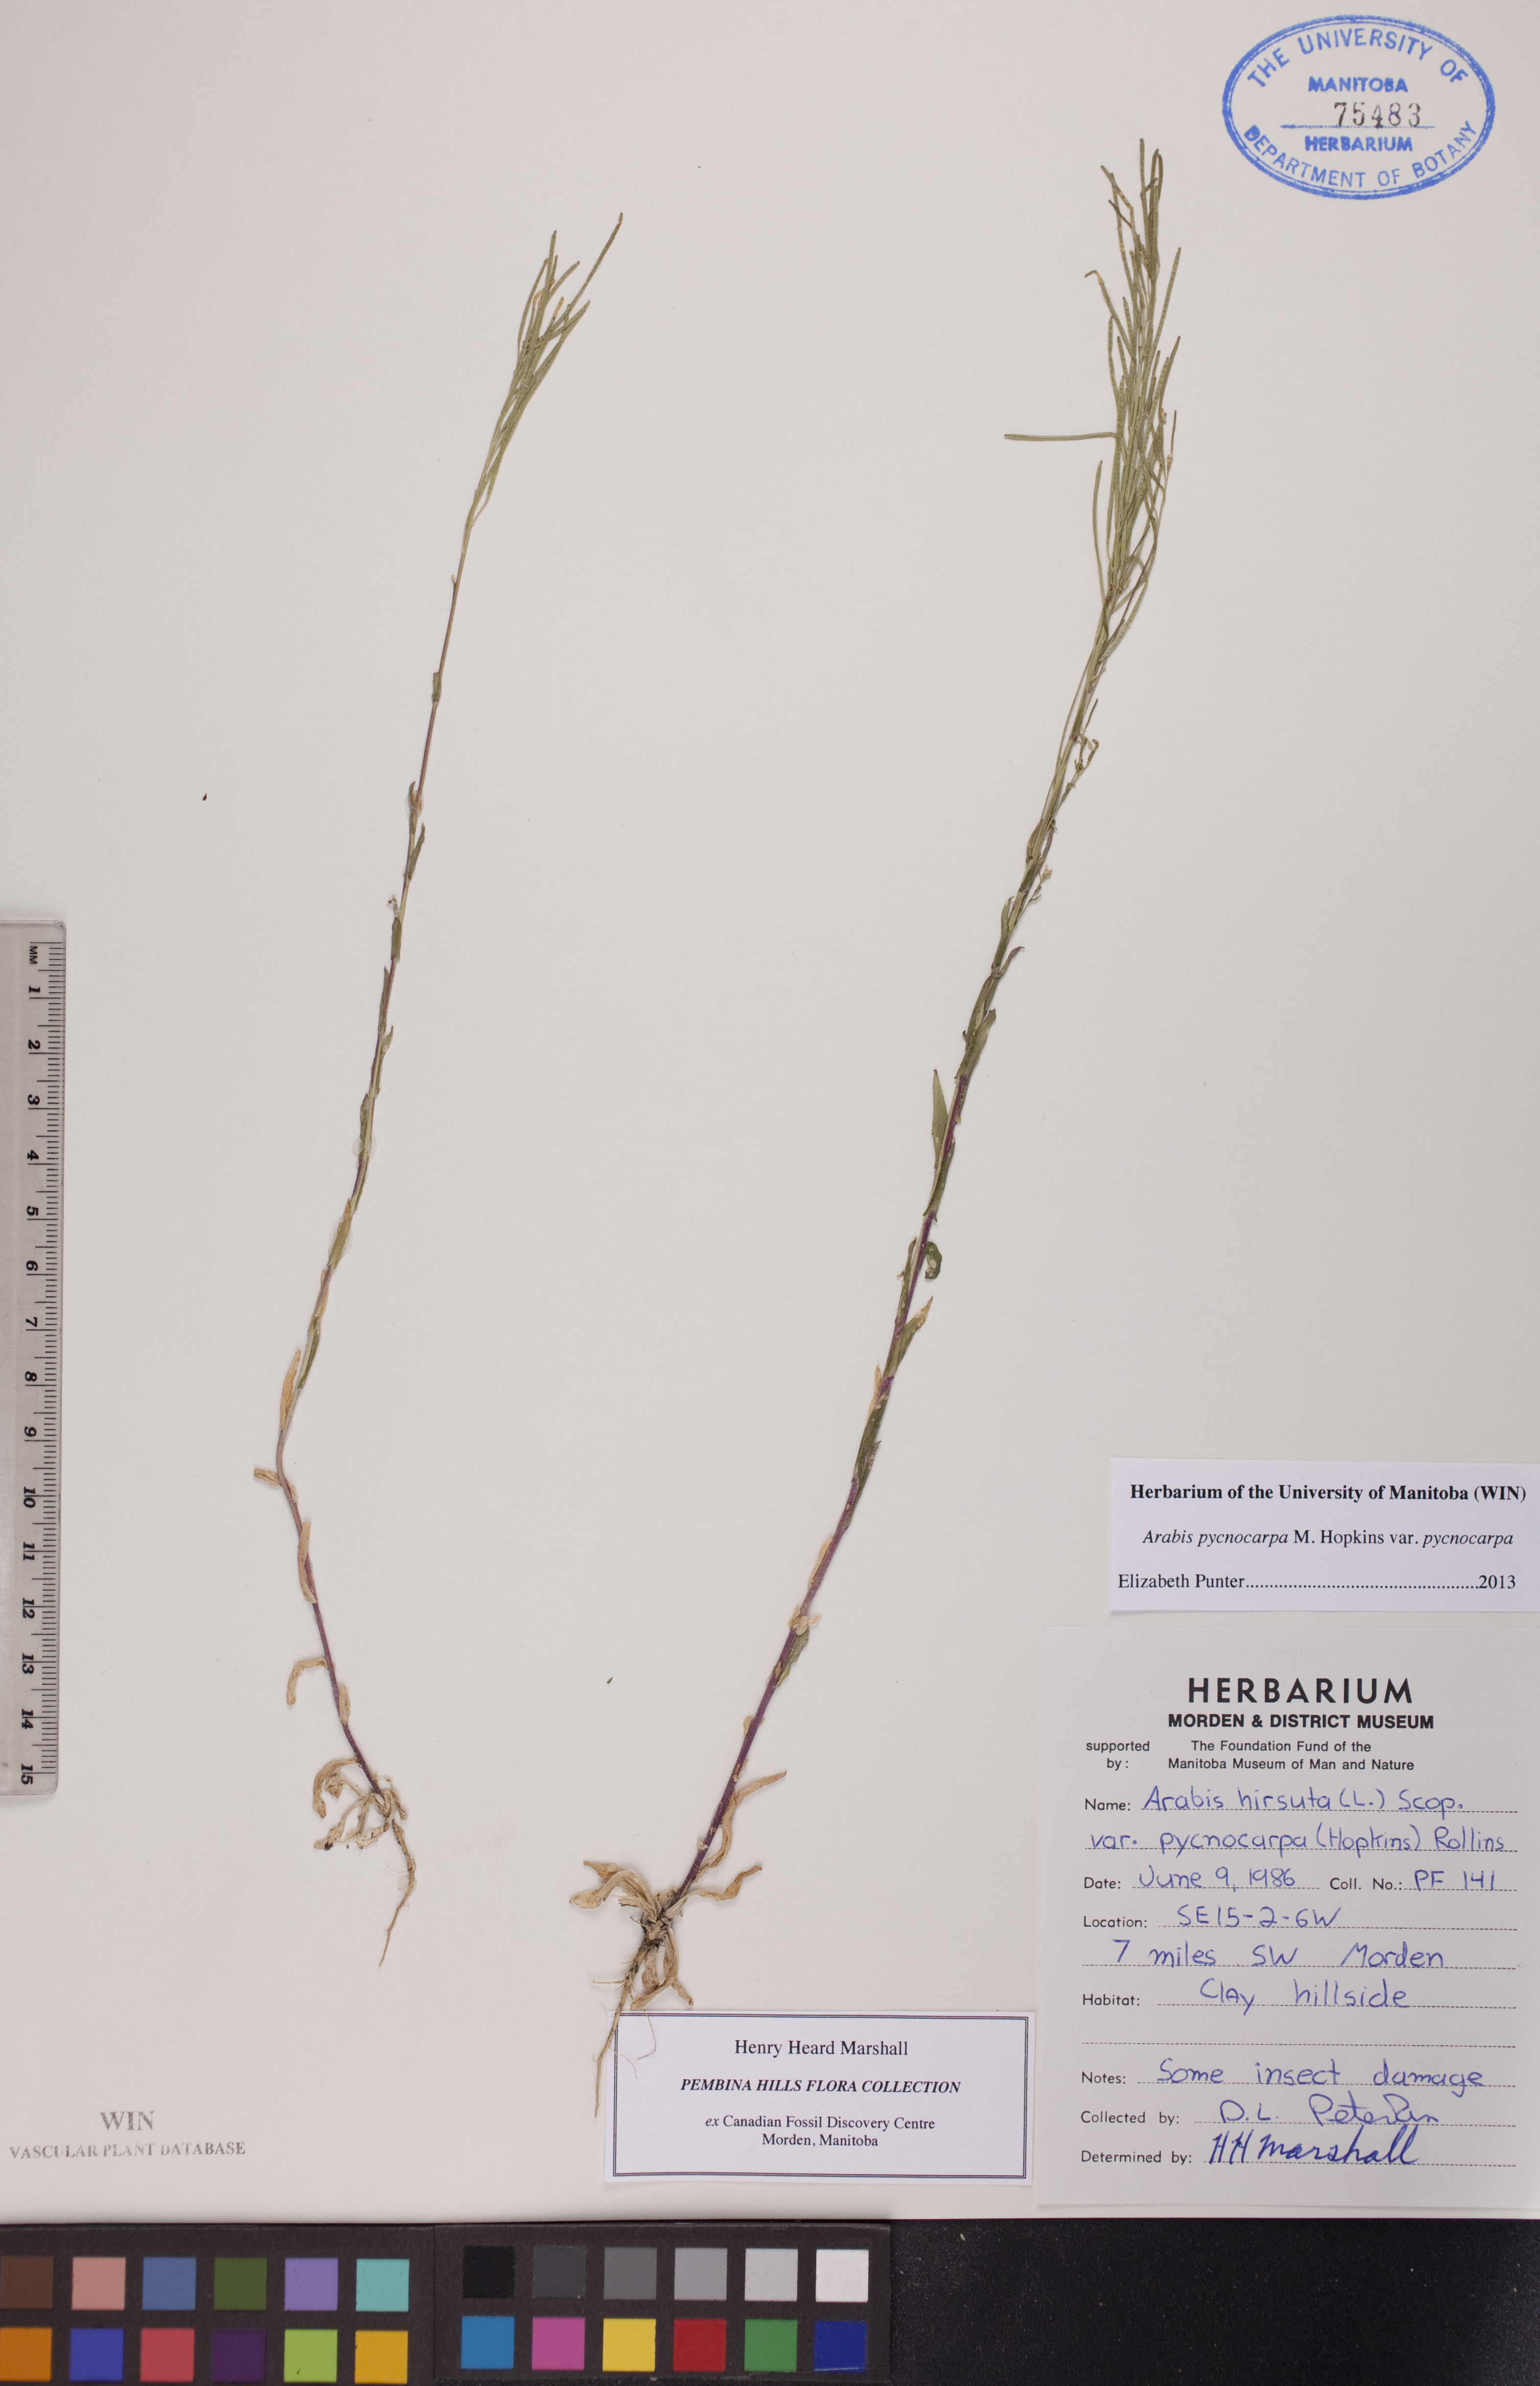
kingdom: Plantae
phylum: Tracheophyta
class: Magnoliopsida
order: Brassicales
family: Brassicaceae
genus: Arabis
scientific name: Arabis pycnocarpa
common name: Blushing rockcress
